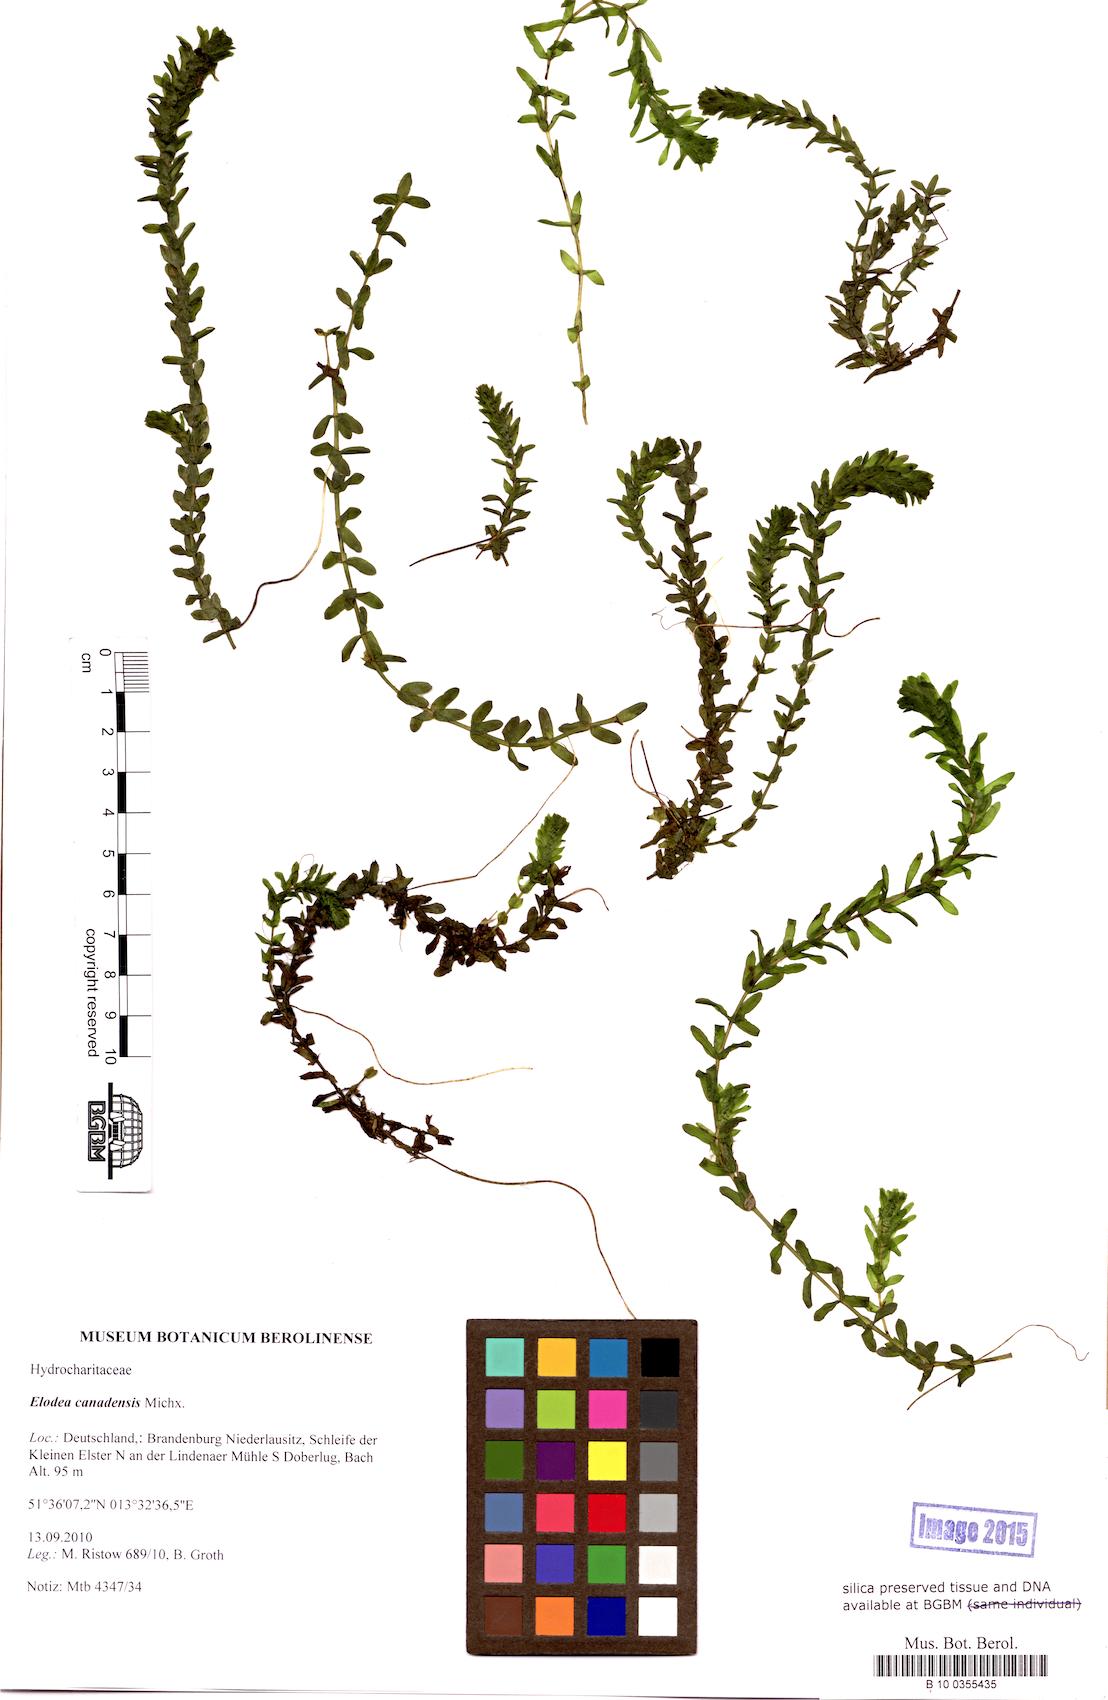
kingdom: Plantae
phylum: Tracheophyta
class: Liliopsida
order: Alismatales
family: Hydrocharitaceae
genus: Elodea
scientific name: Elodea canadensis
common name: Canadian waterweed
